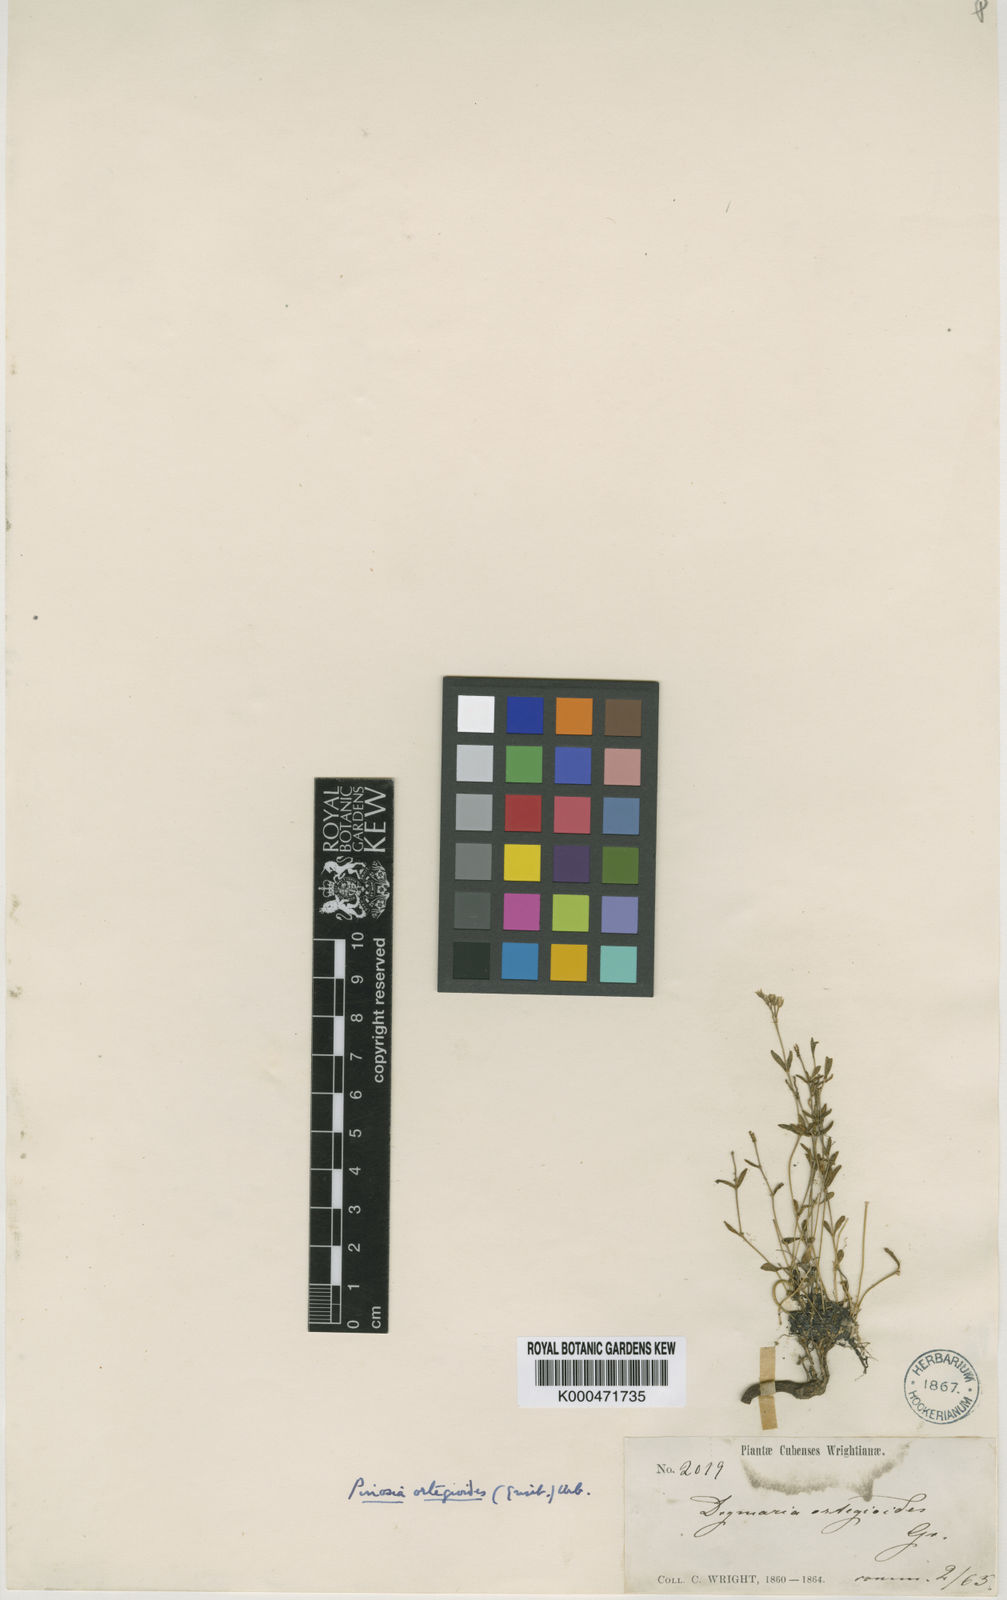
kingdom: Plantae
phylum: Tracheophyta
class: Magnoliopsida
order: Caryophyllales
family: Caryophyllaceae
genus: Drymaria
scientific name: Drymaria ortegioides
